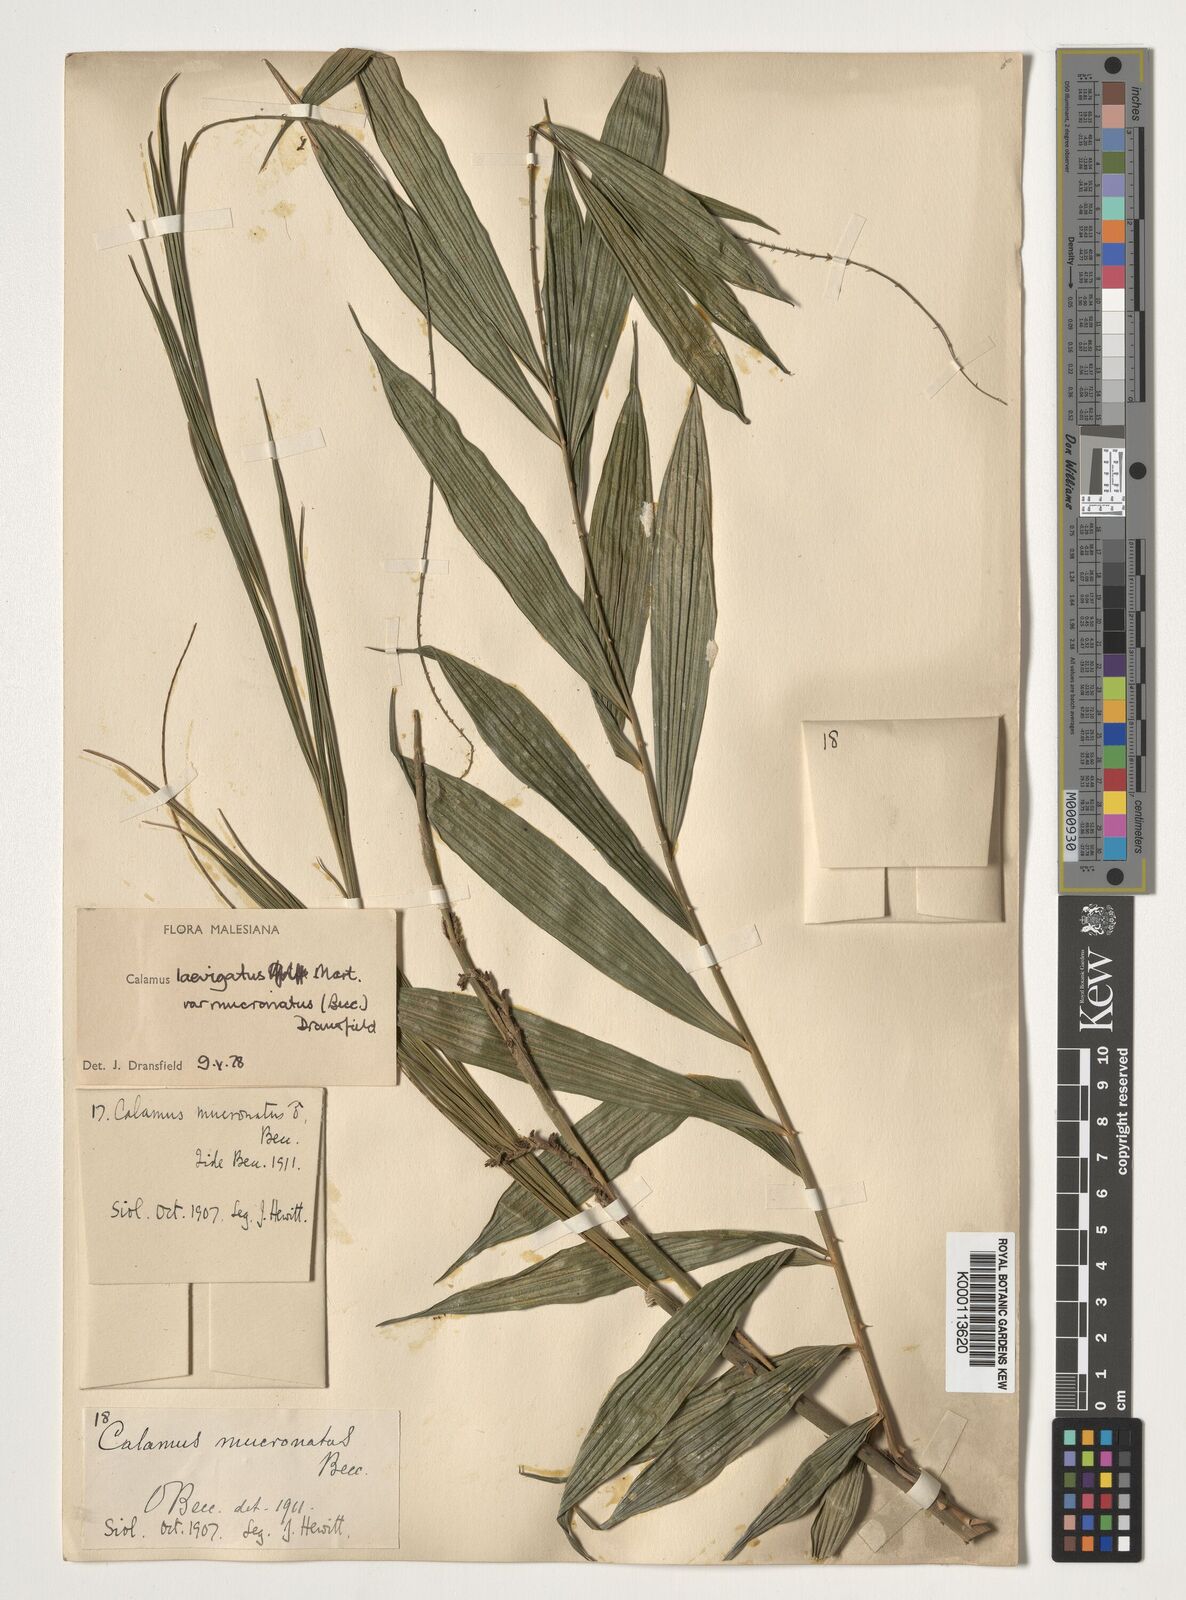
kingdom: Plantae
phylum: Tracheophyta
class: Liliopsida
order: Arecales
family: Arecaceae
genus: Calamus
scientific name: Calamus plicatus
